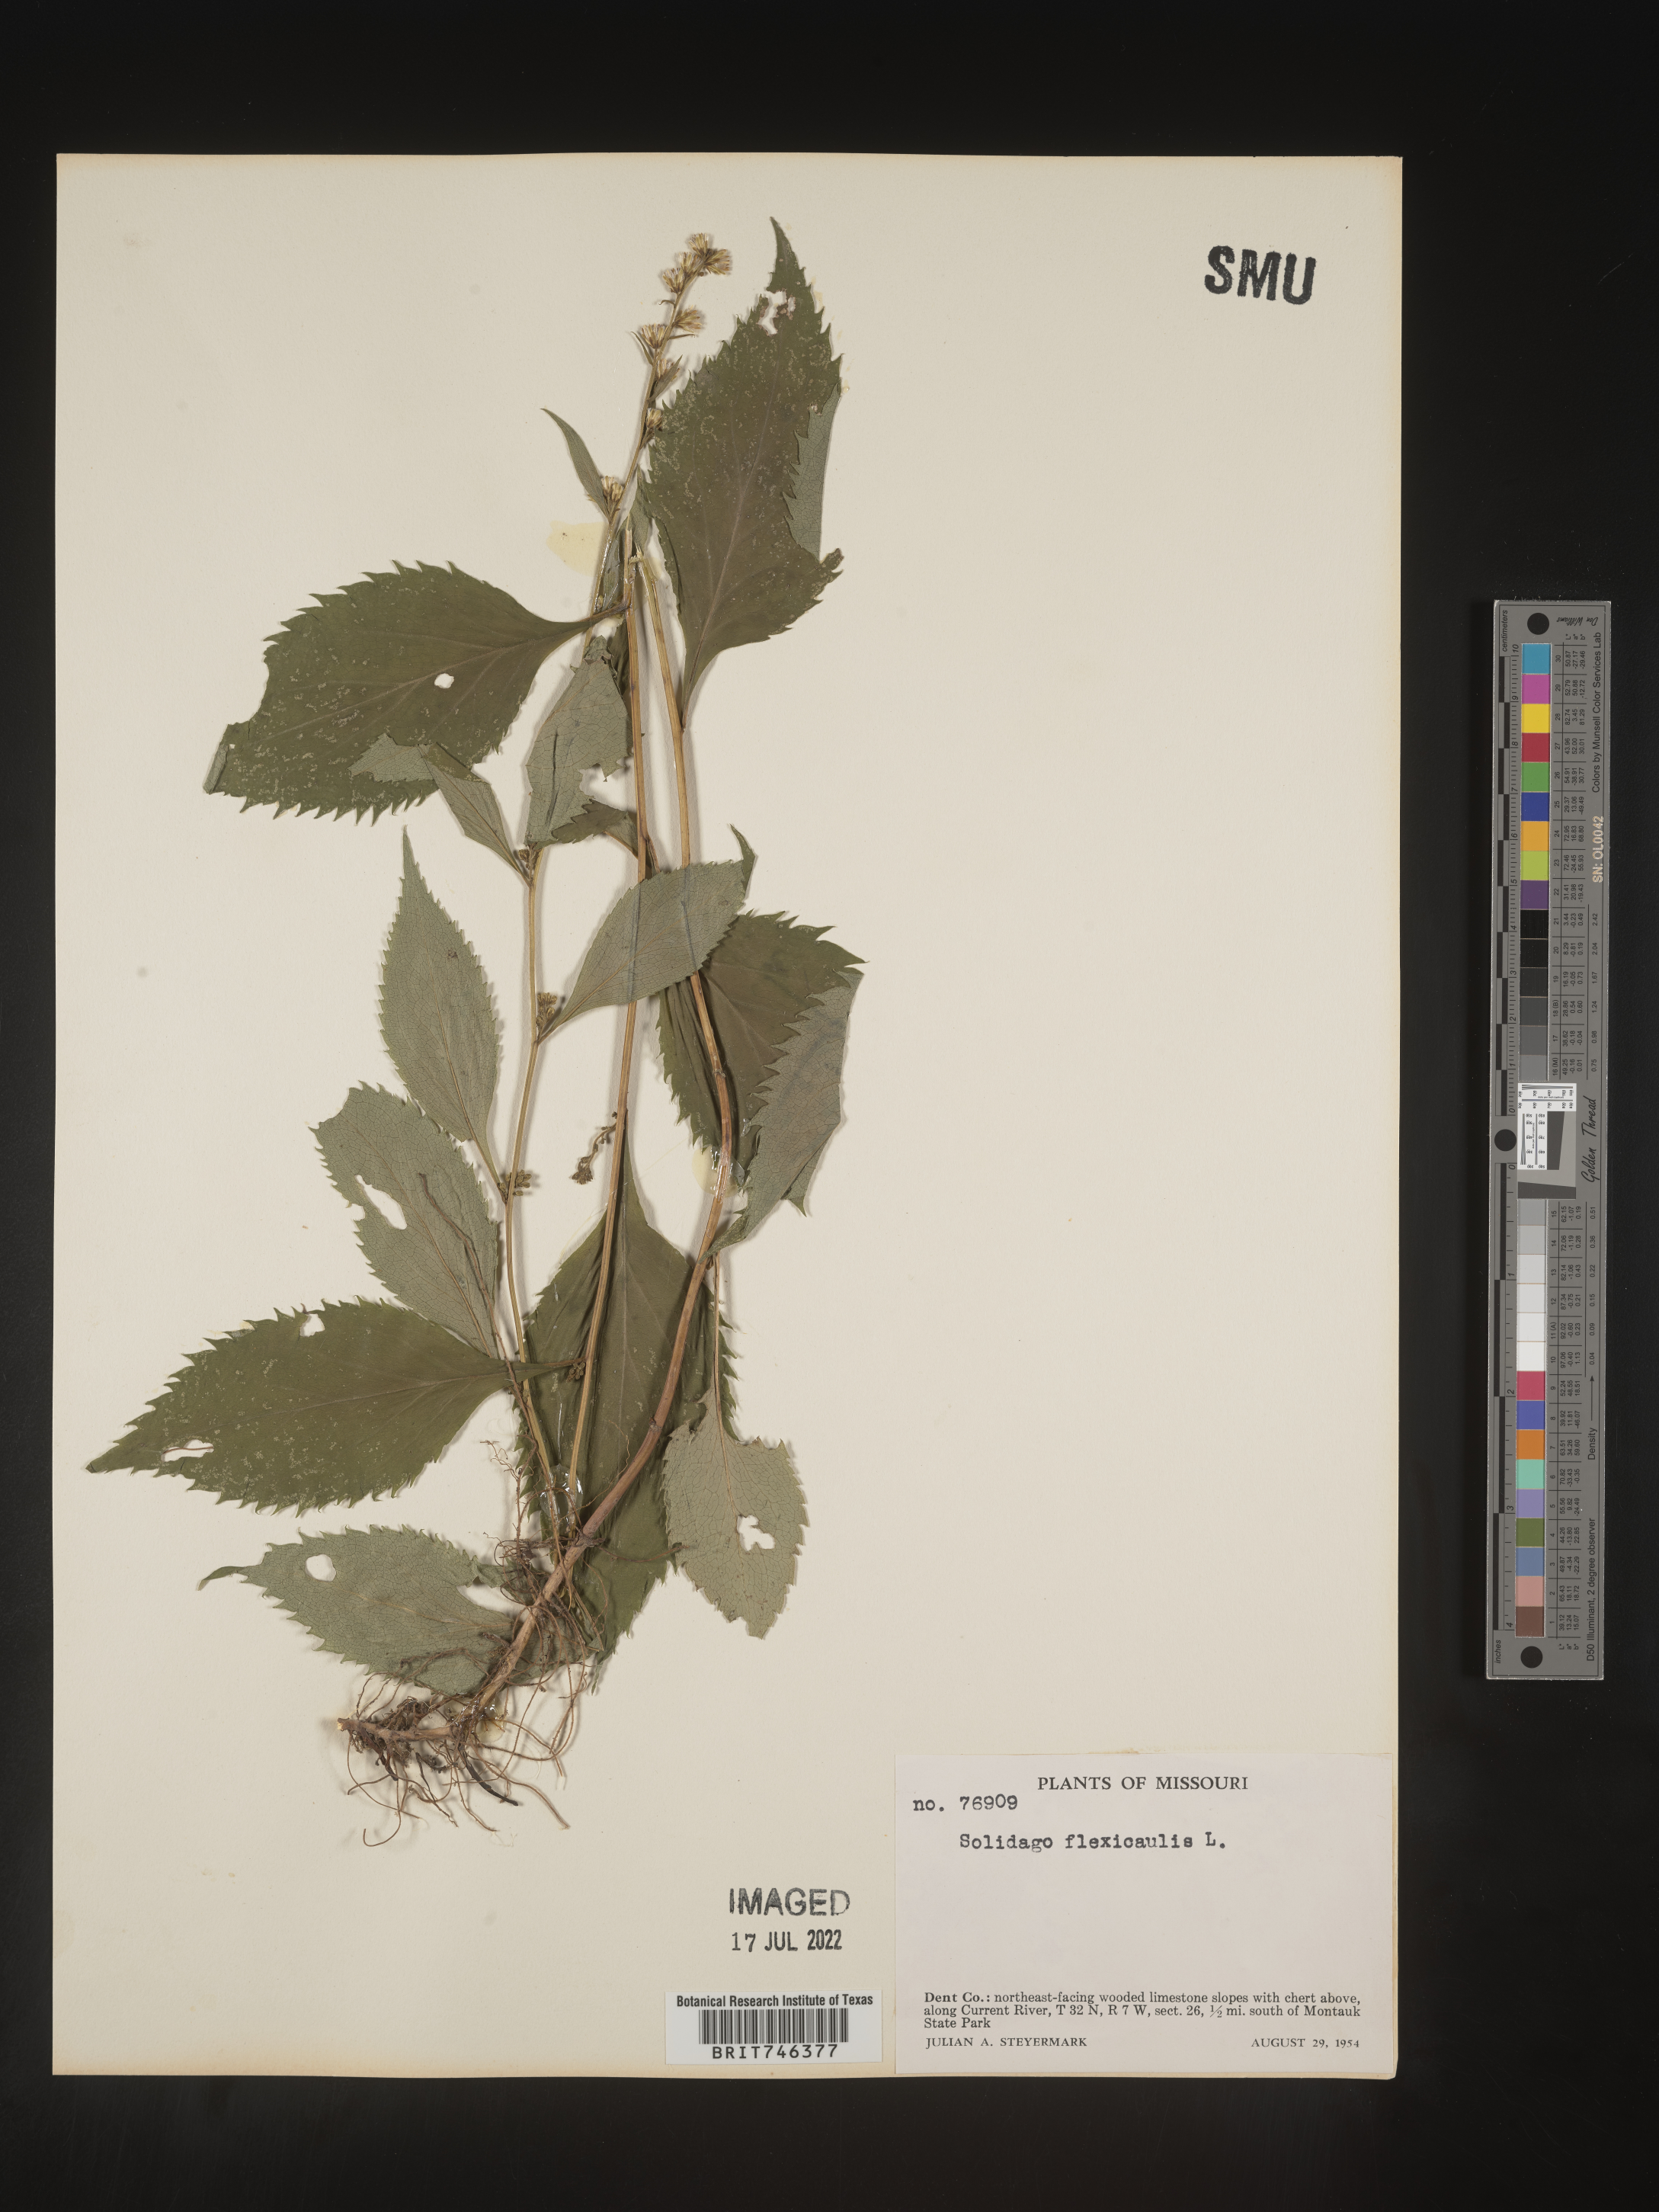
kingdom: Plantae
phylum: Tracheophyta
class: Magnoliopsida
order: Asterales
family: Asteraceae
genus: Solidago
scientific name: Solidago flexicaulis
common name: Zig-zag goldenrod
